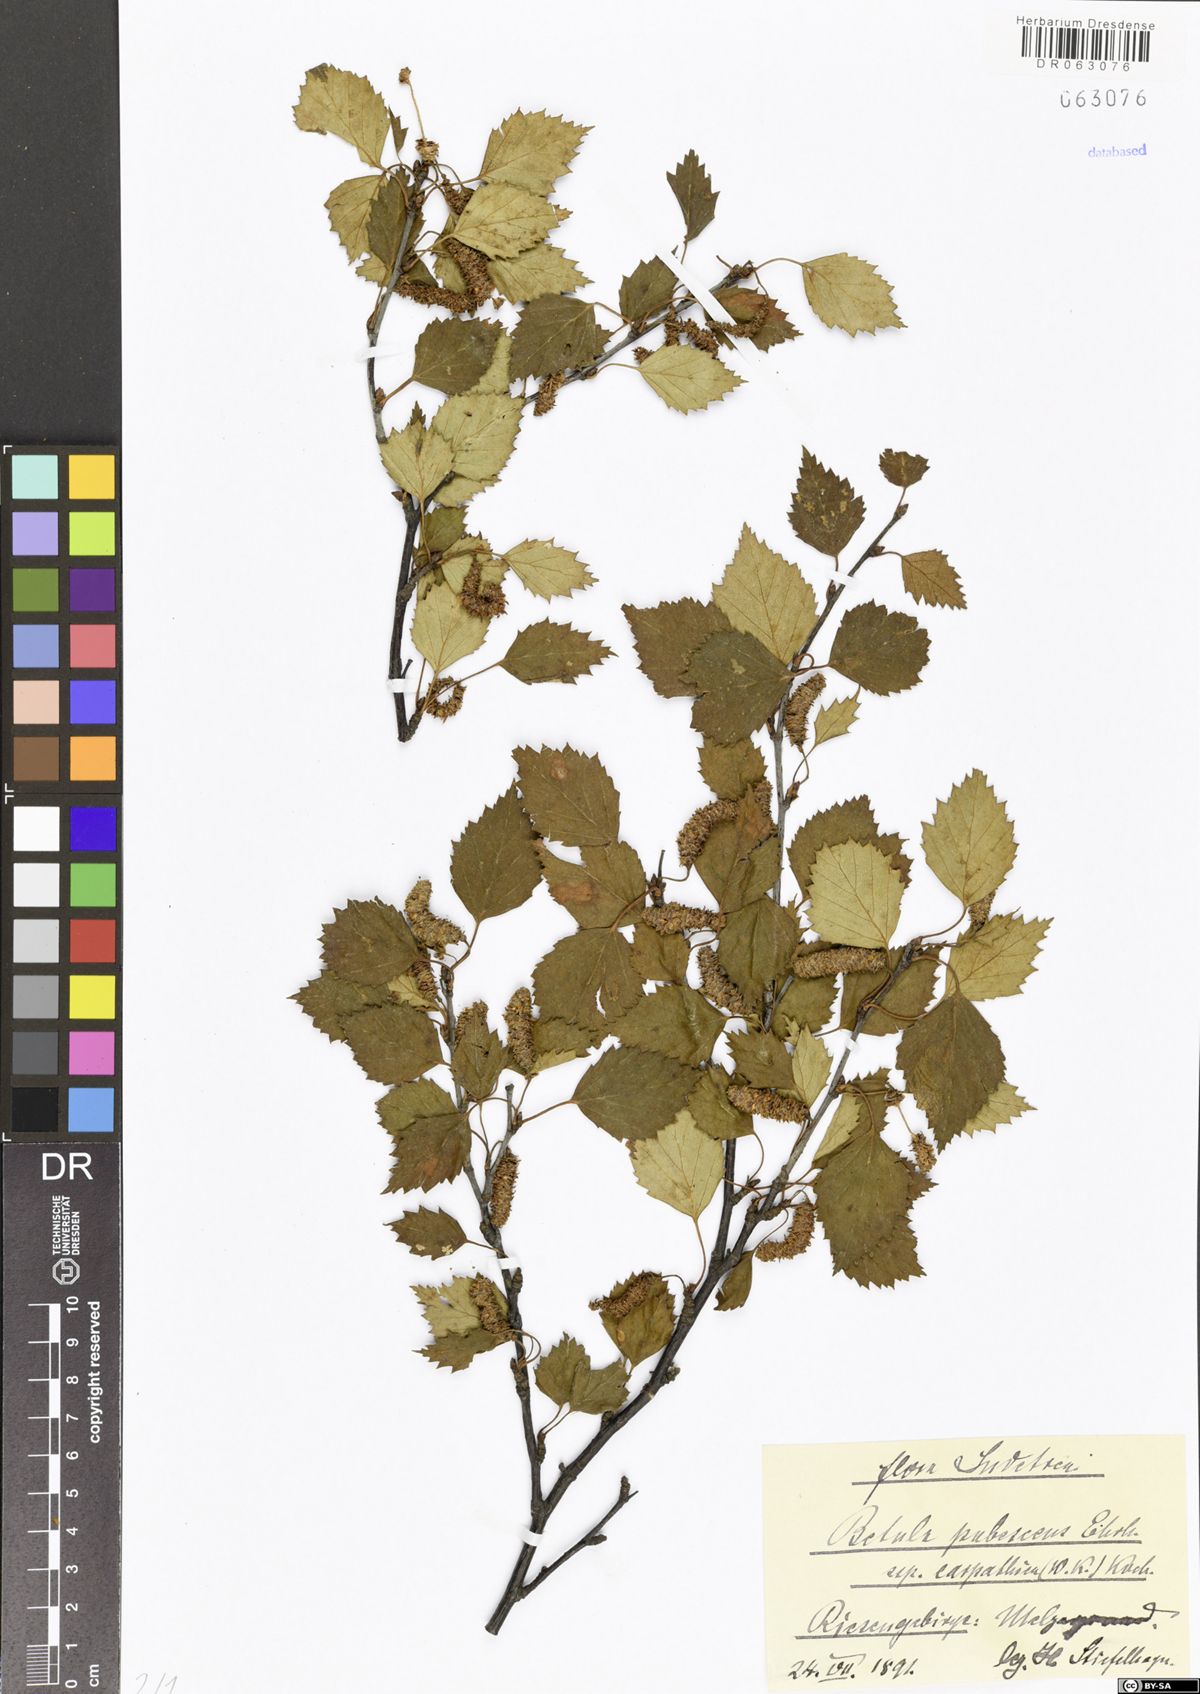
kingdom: Plantae
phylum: Tracheophyta
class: Magnoliopsida
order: Fagales
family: Betulaceae
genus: Betula
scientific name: Betula pubescens
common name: Downy birch
